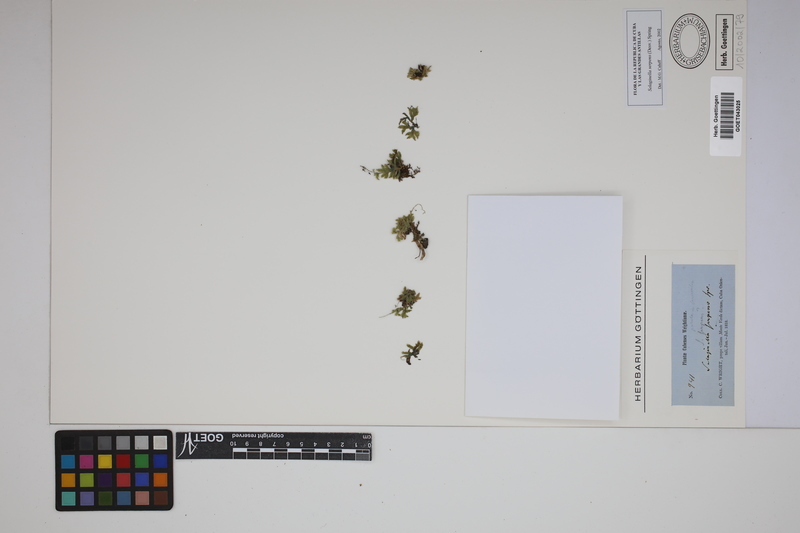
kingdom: Plantae
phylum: Tracheophyta
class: Lycopodiopsida
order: Selaginellales
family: Selaginellaceae
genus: Selaginella
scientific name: Selaginella serpens
